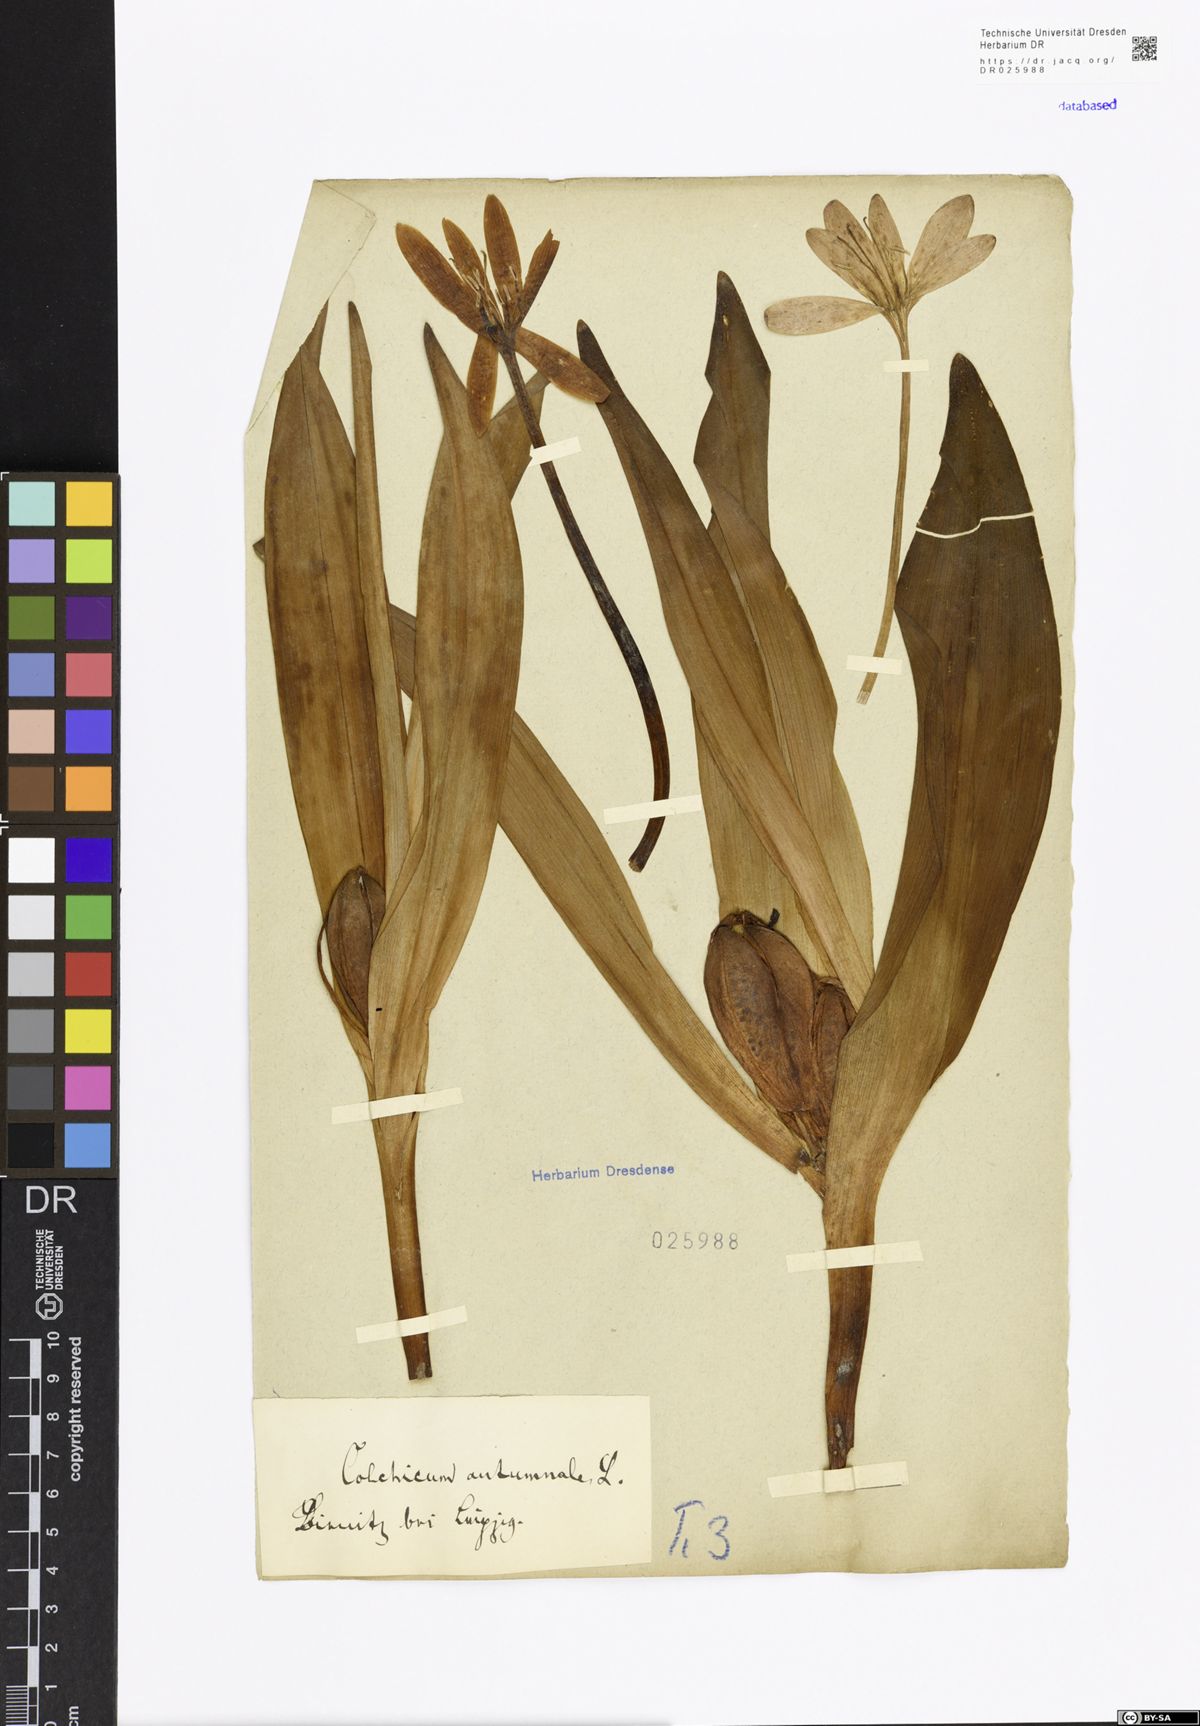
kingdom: Plantae
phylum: Tracheophyta
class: Liliopsida
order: Liliales
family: Colchicaceae
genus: Colchicum
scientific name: Colchicum autumnale
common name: Autumn crocus
